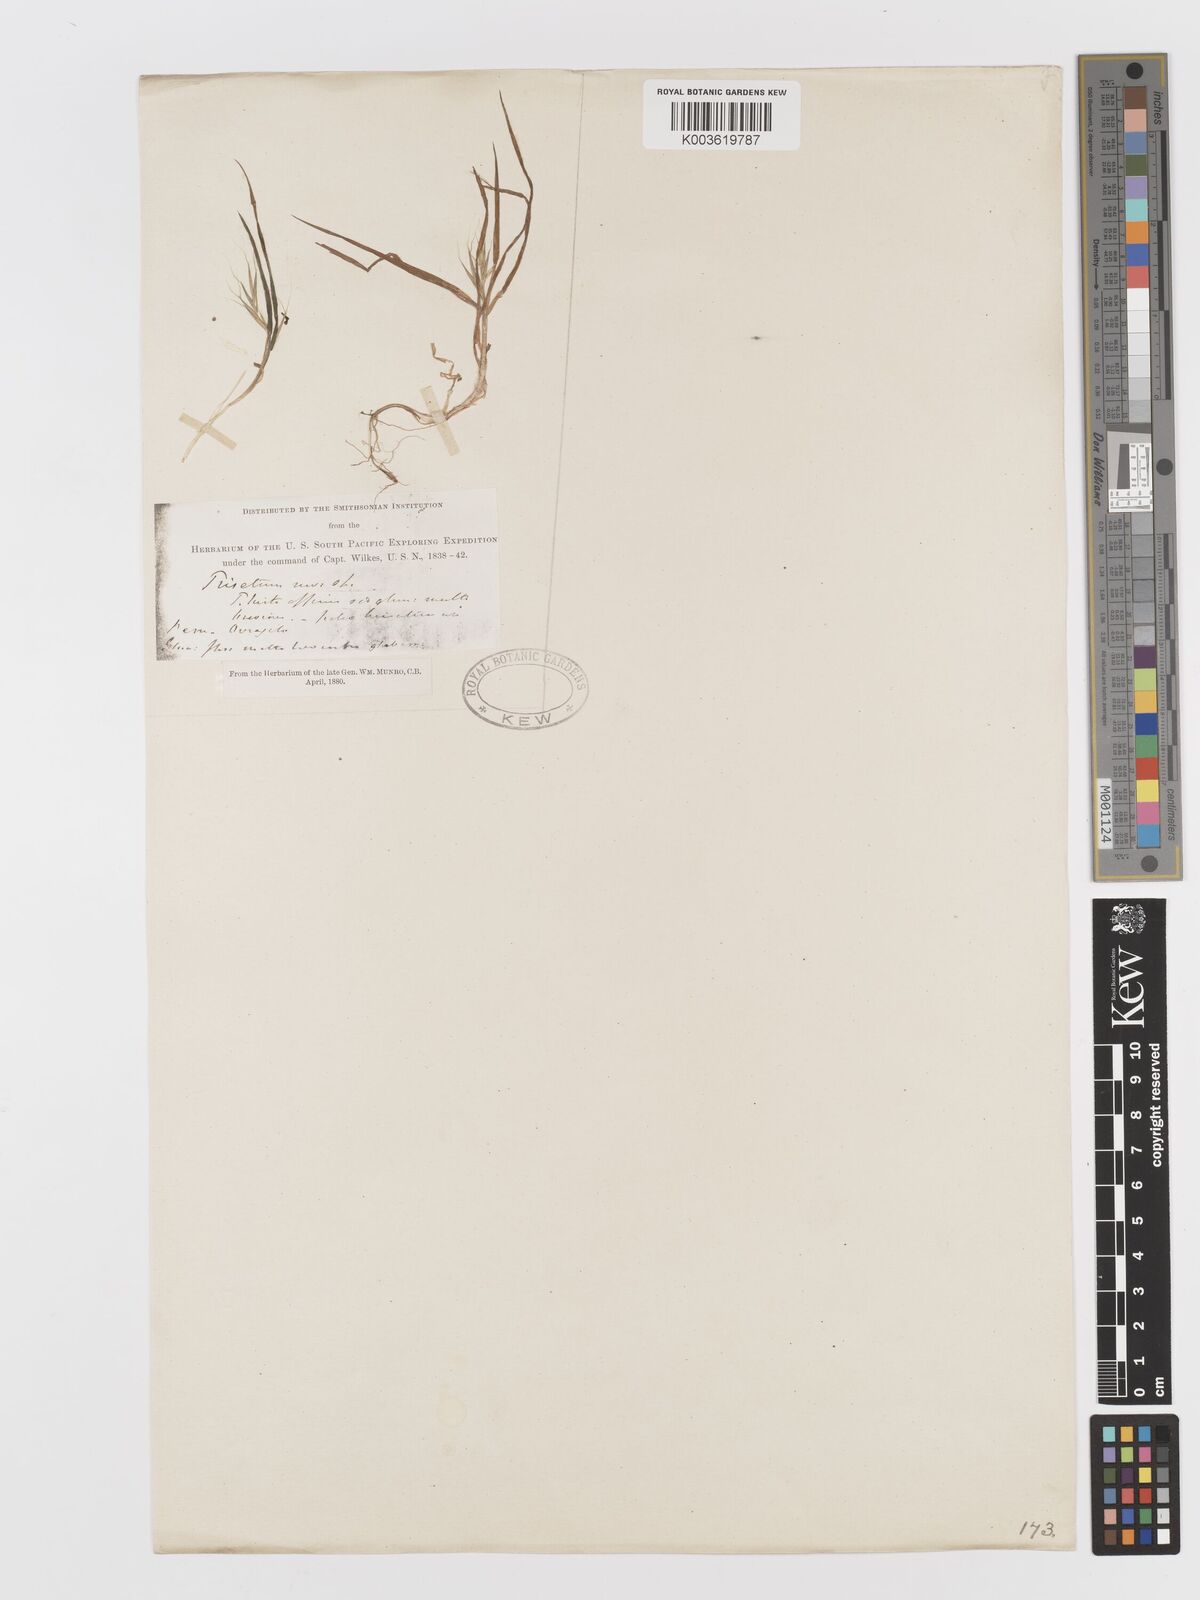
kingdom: Plantae
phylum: Tracheophyta
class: Liliopsida
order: Poales
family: Poaceae
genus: Festuca
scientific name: Festuca floribunda
